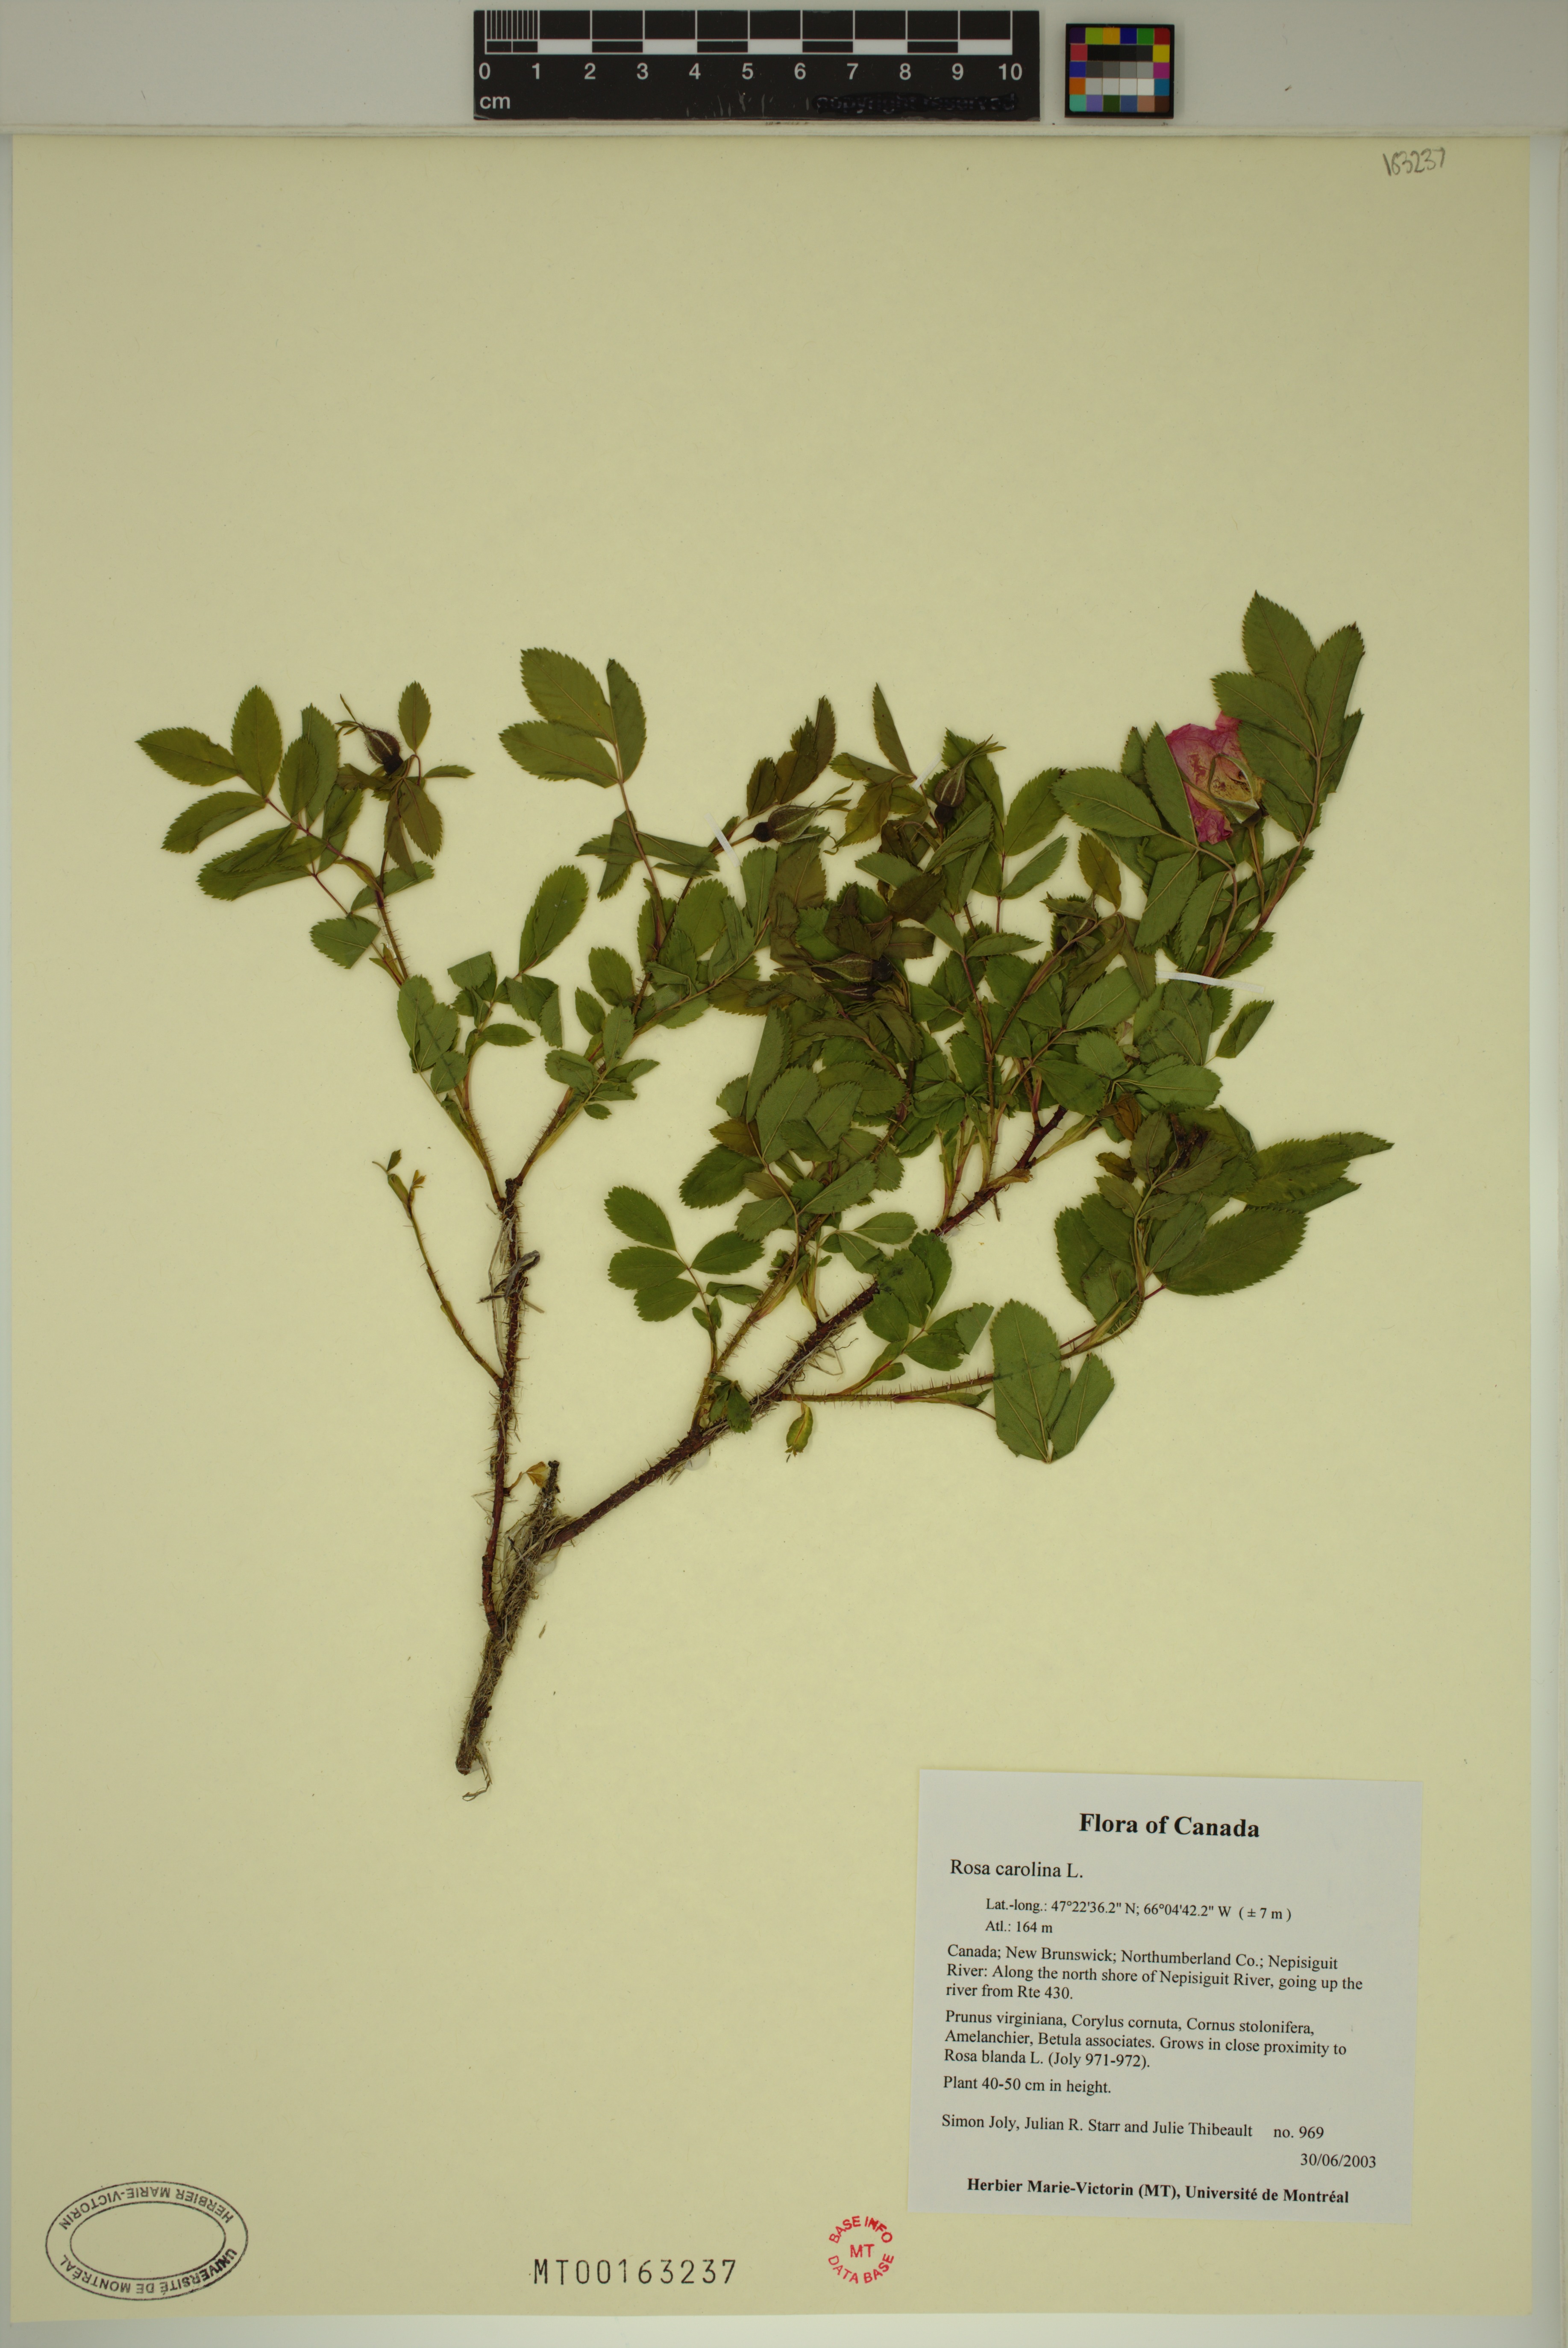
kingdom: Plantae
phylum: Tracheophyta
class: Magnoliopsida
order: Rosales
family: Rosaceae
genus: Rosa
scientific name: Rosa carolina
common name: Pasture rose
